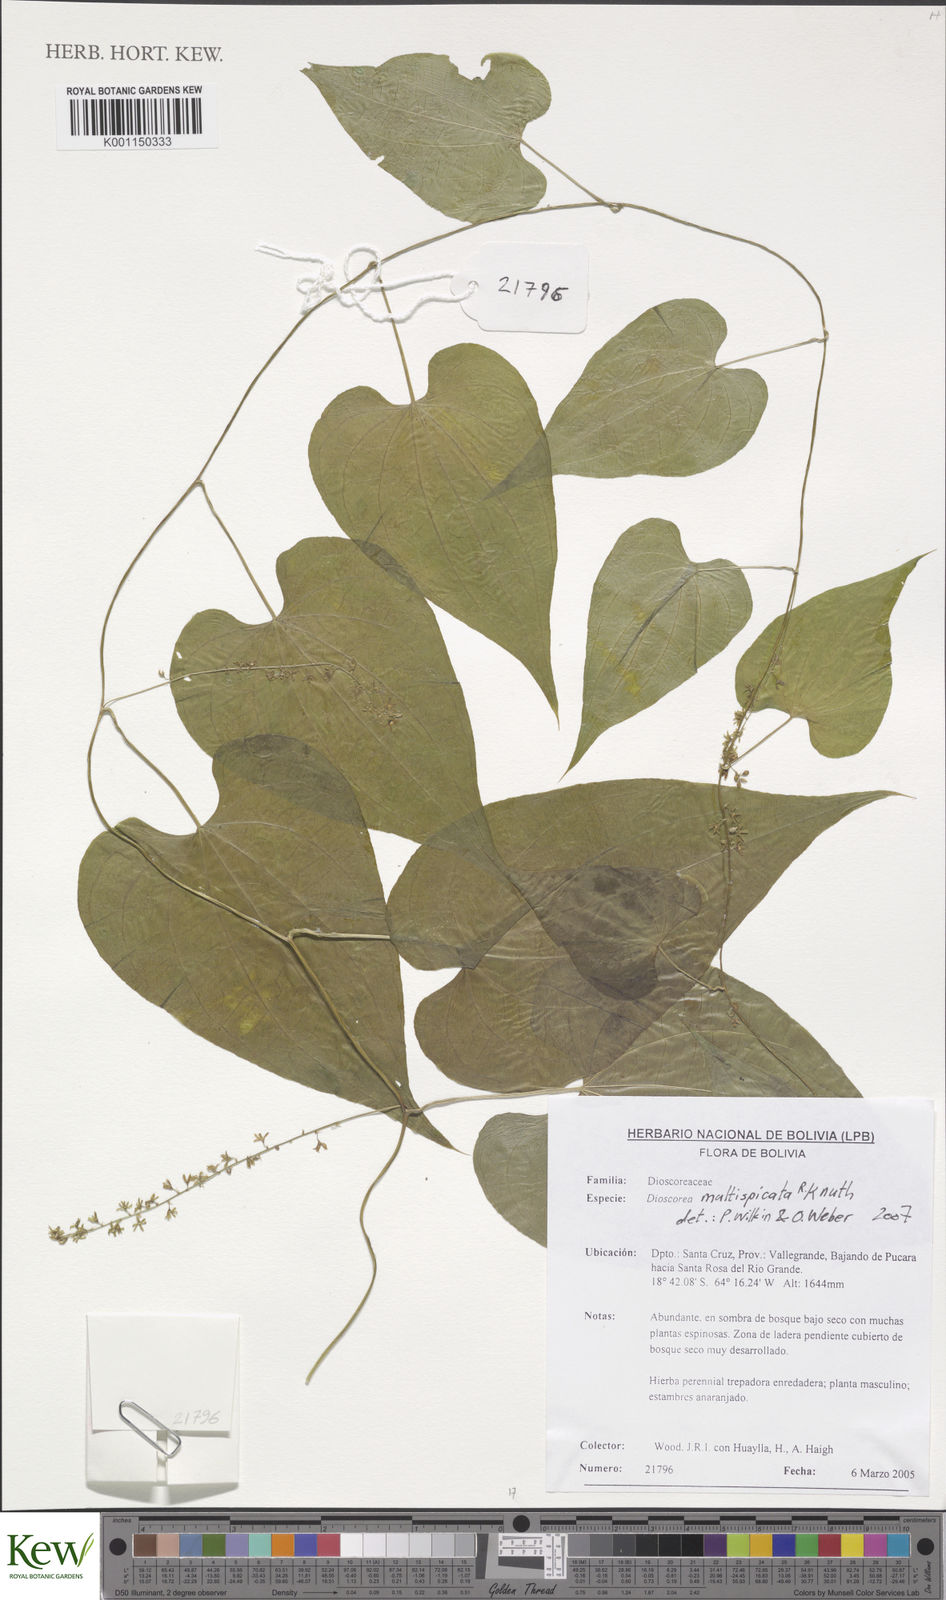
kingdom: Plantae
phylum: Tracheophyta
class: Liliopsida
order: Dioscoreales
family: Dioscoreaceae
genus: Dioscorea
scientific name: Dioscorea multispicata
